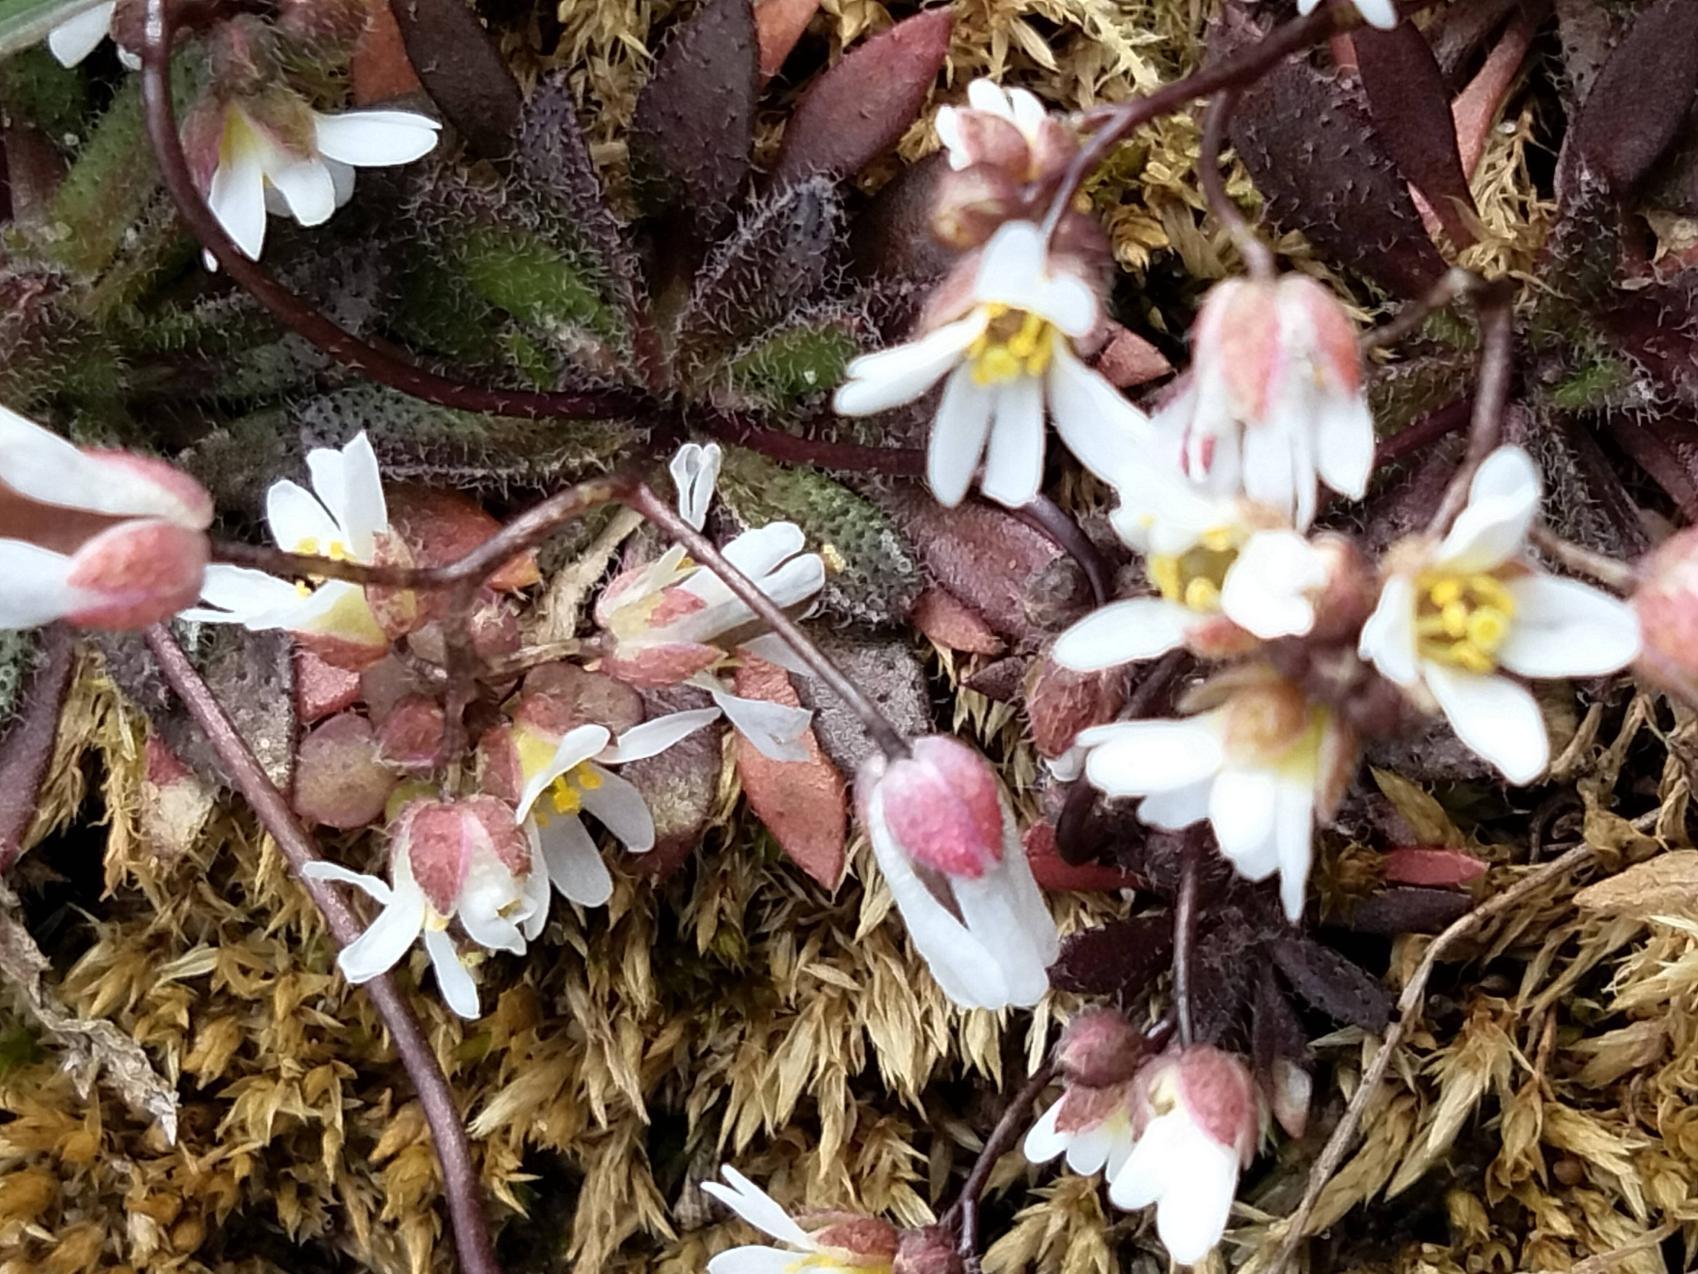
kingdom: Plantae
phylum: Tracheophyta
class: Magnoliopsida
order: Brassicales
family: Brassicaceae
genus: Draba
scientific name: Draba verna
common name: Vår-gæslingeblomst
